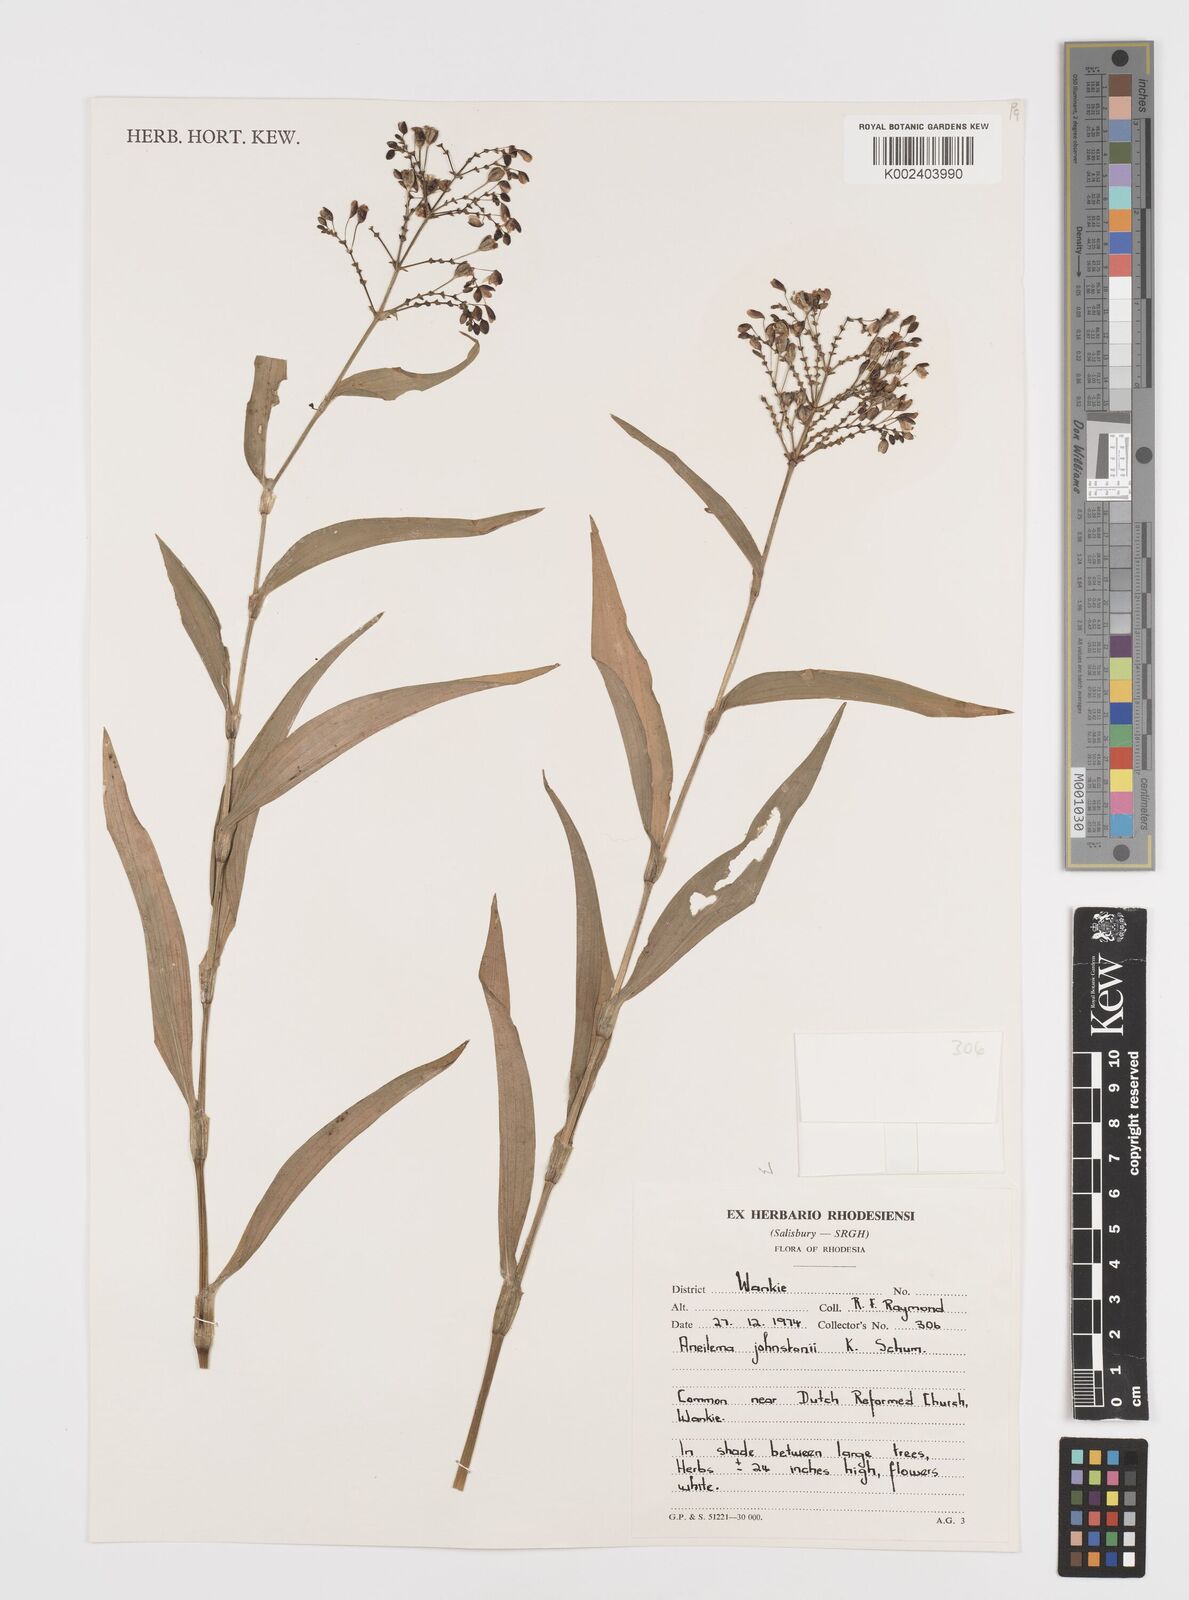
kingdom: Plantae
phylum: Tracheophyta
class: Liliopsida
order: Commelinales
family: Commelinaceae
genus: Aneilema
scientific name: Aneilema johnstonii
